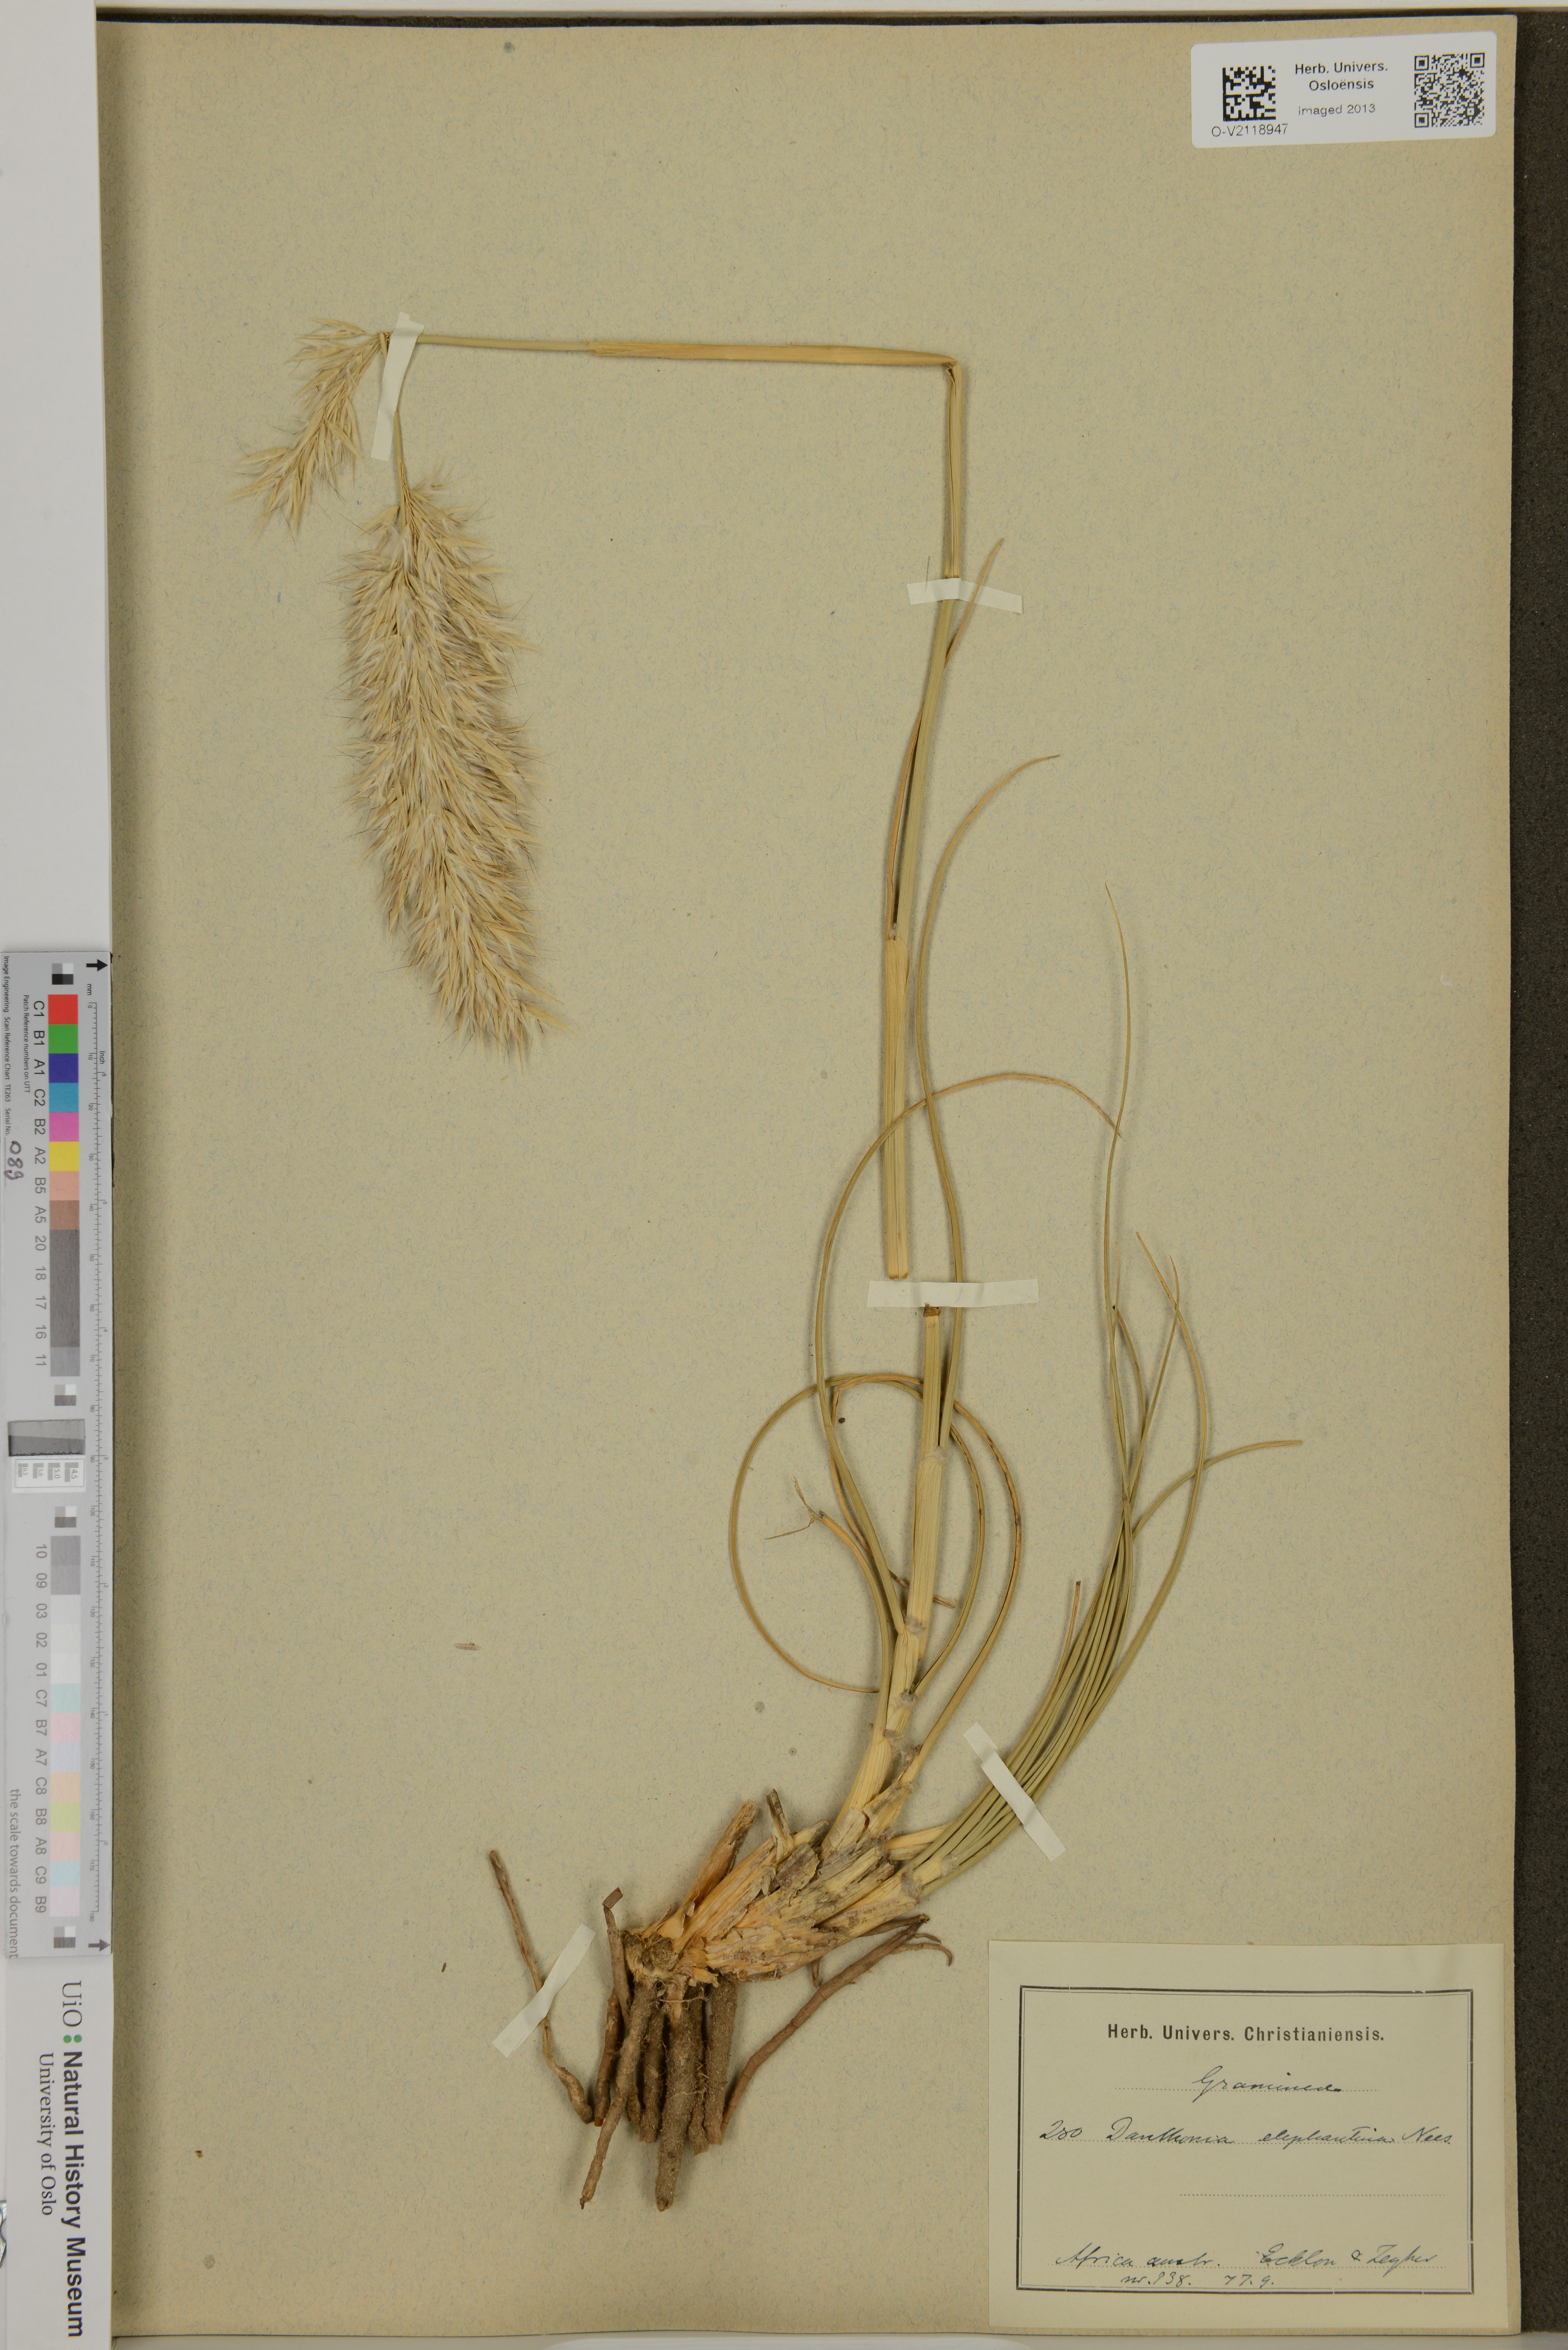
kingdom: Plantae
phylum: Tracheophyta
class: Liliopsida
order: Poales
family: Poaceae
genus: Capeochloa
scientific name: Capeochloa arundinacea
